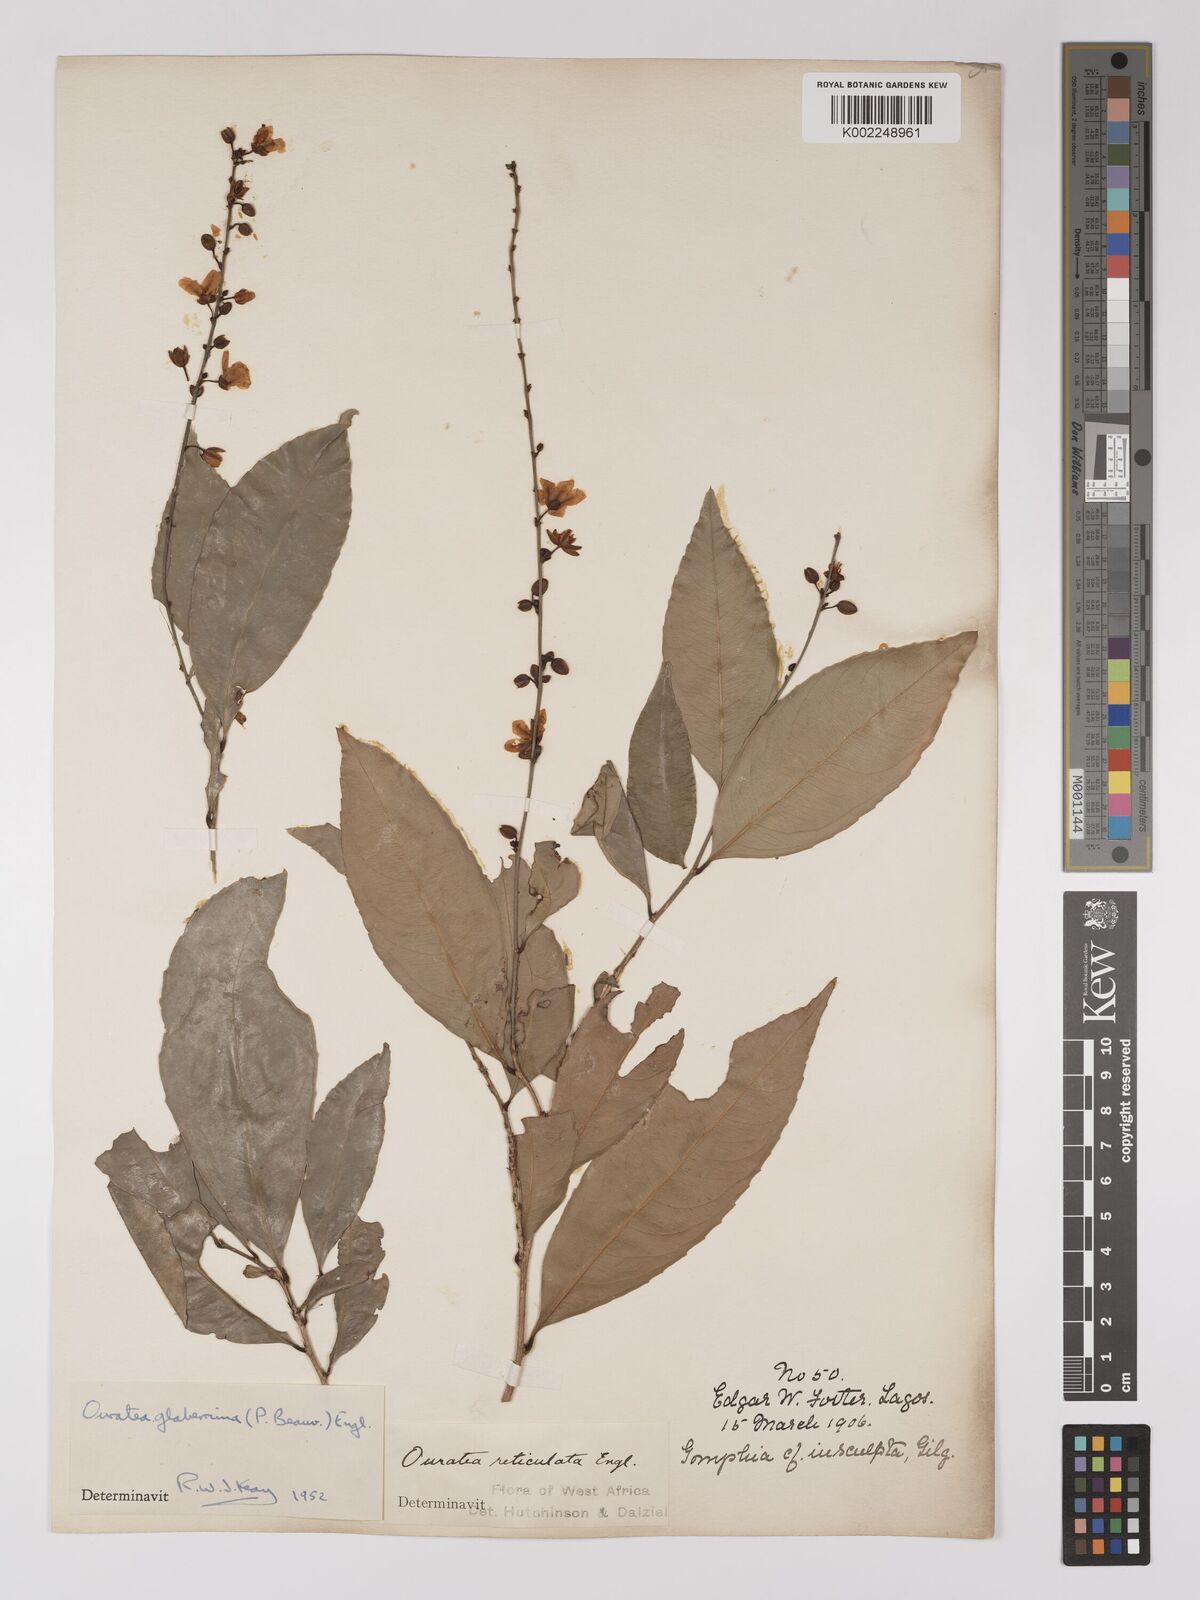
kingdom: Plantae
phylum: Tracheophyta
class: Magnoliopsida
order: Malpighiales
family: Ochnaceae
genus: Campylospermum
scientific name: Campylospermum glaberrimum
